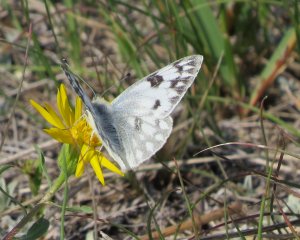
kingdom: Animalia
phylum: Arthropoda
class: Insecta
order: Lepidoptera
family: Pieridae
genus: Pontia
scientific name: Pontia protodice
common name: Checkered White
